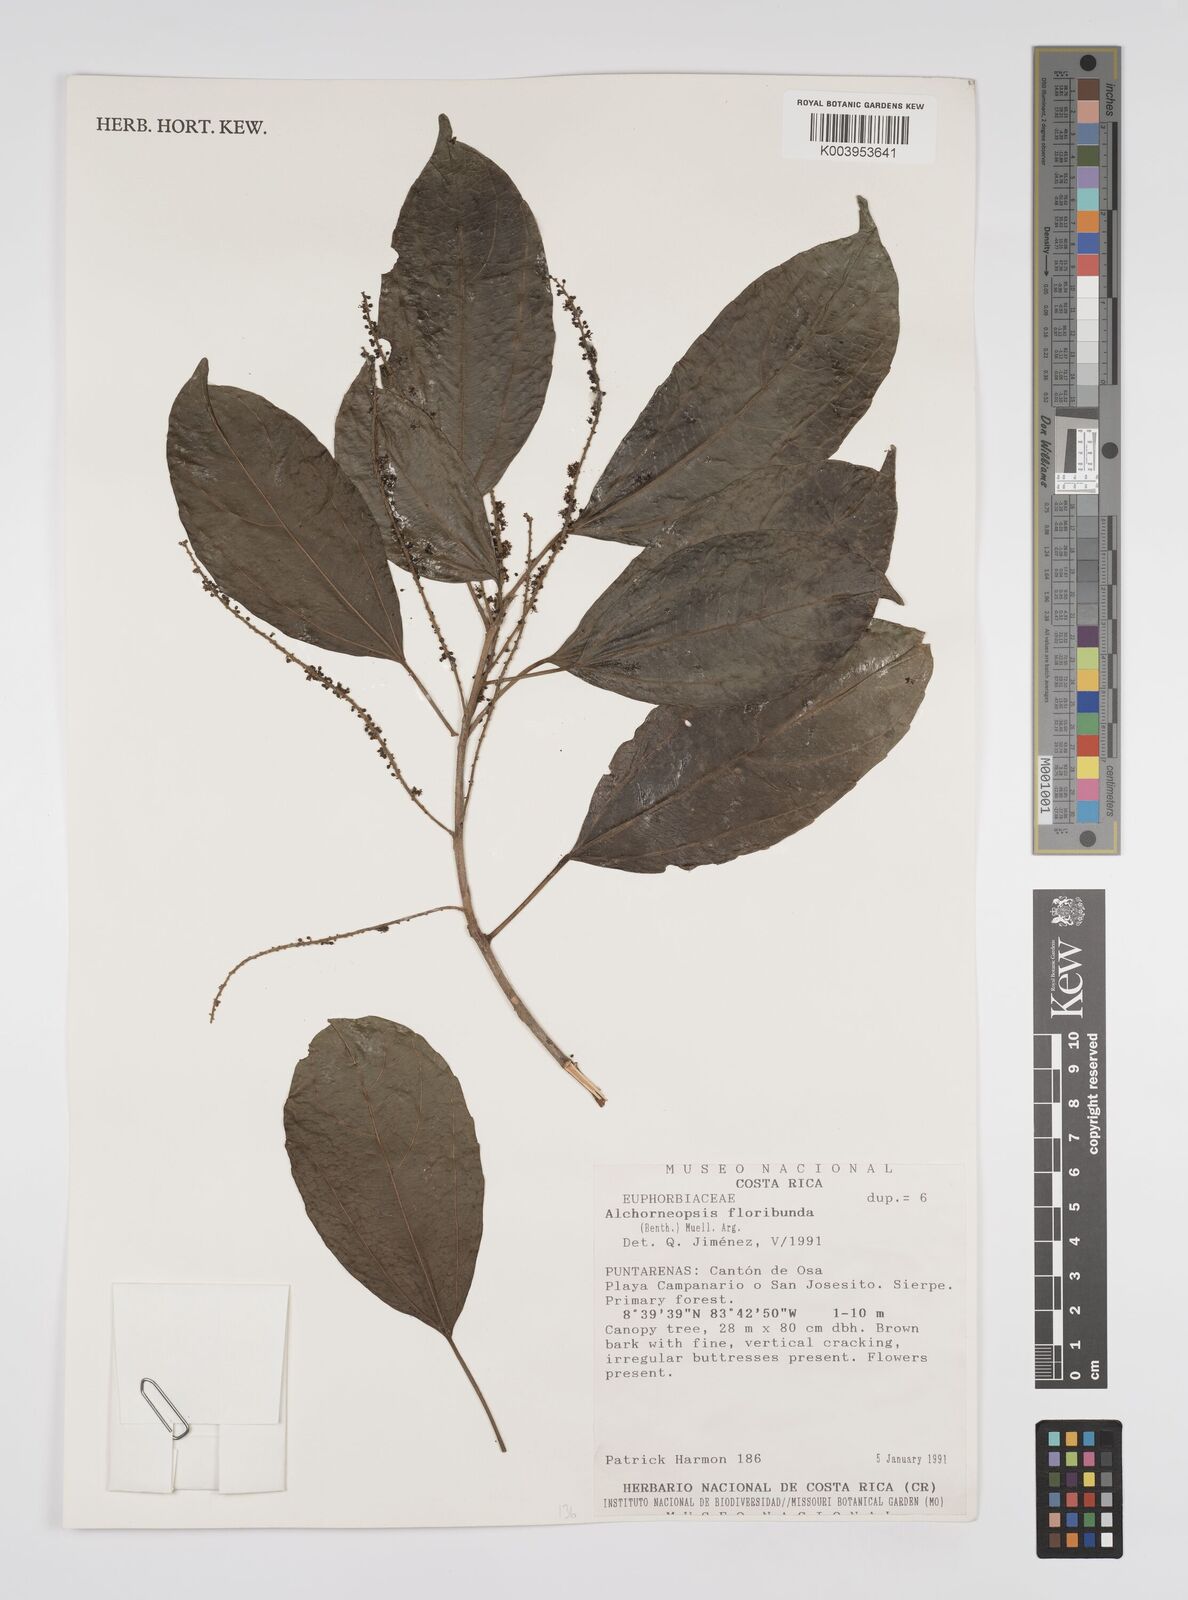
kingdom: Plantae
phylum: Tracheophyta
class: Magnoliopsida
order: Malpighiales
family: Euphorbiaceae
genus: Alchorneopsis
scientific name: Alchorneopsis floribunda
